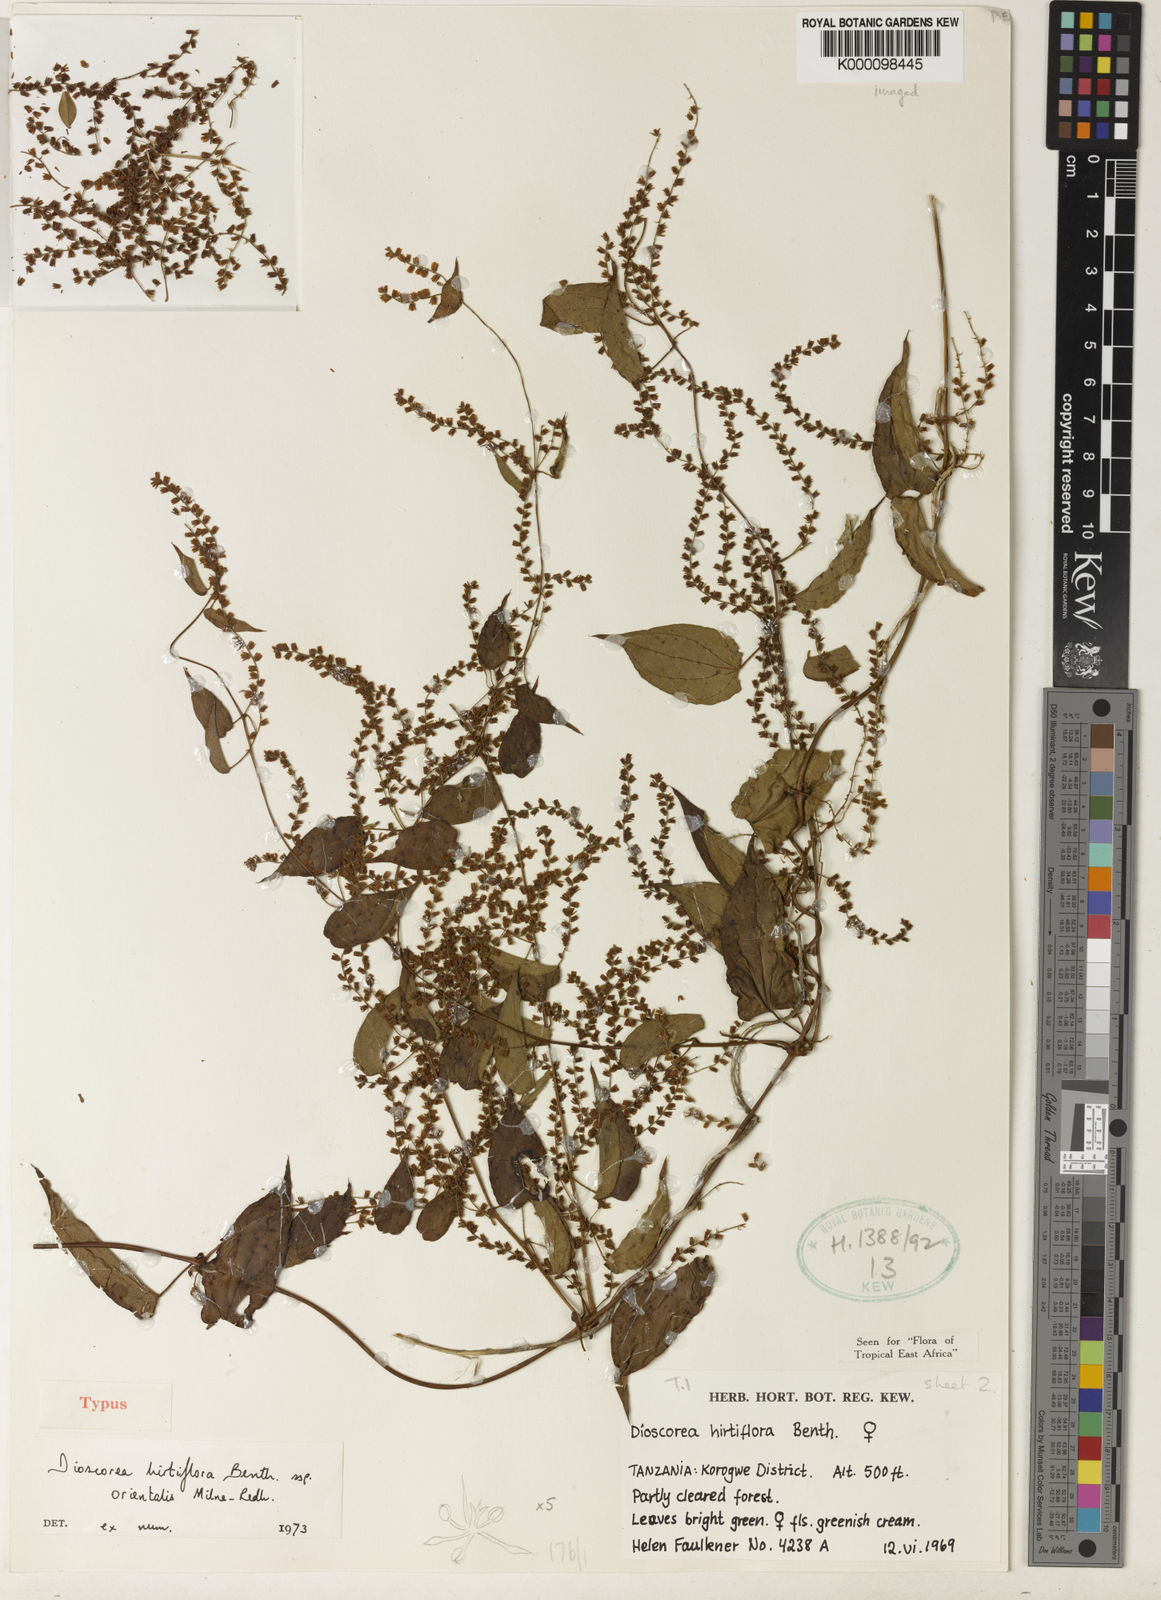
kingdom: Plantae
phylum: Tracheophyta
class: Liliopsida
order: Dioscoreales
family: Dioscoreaceae
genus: Dioscorea
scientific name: Dioscorea hirtiflora
